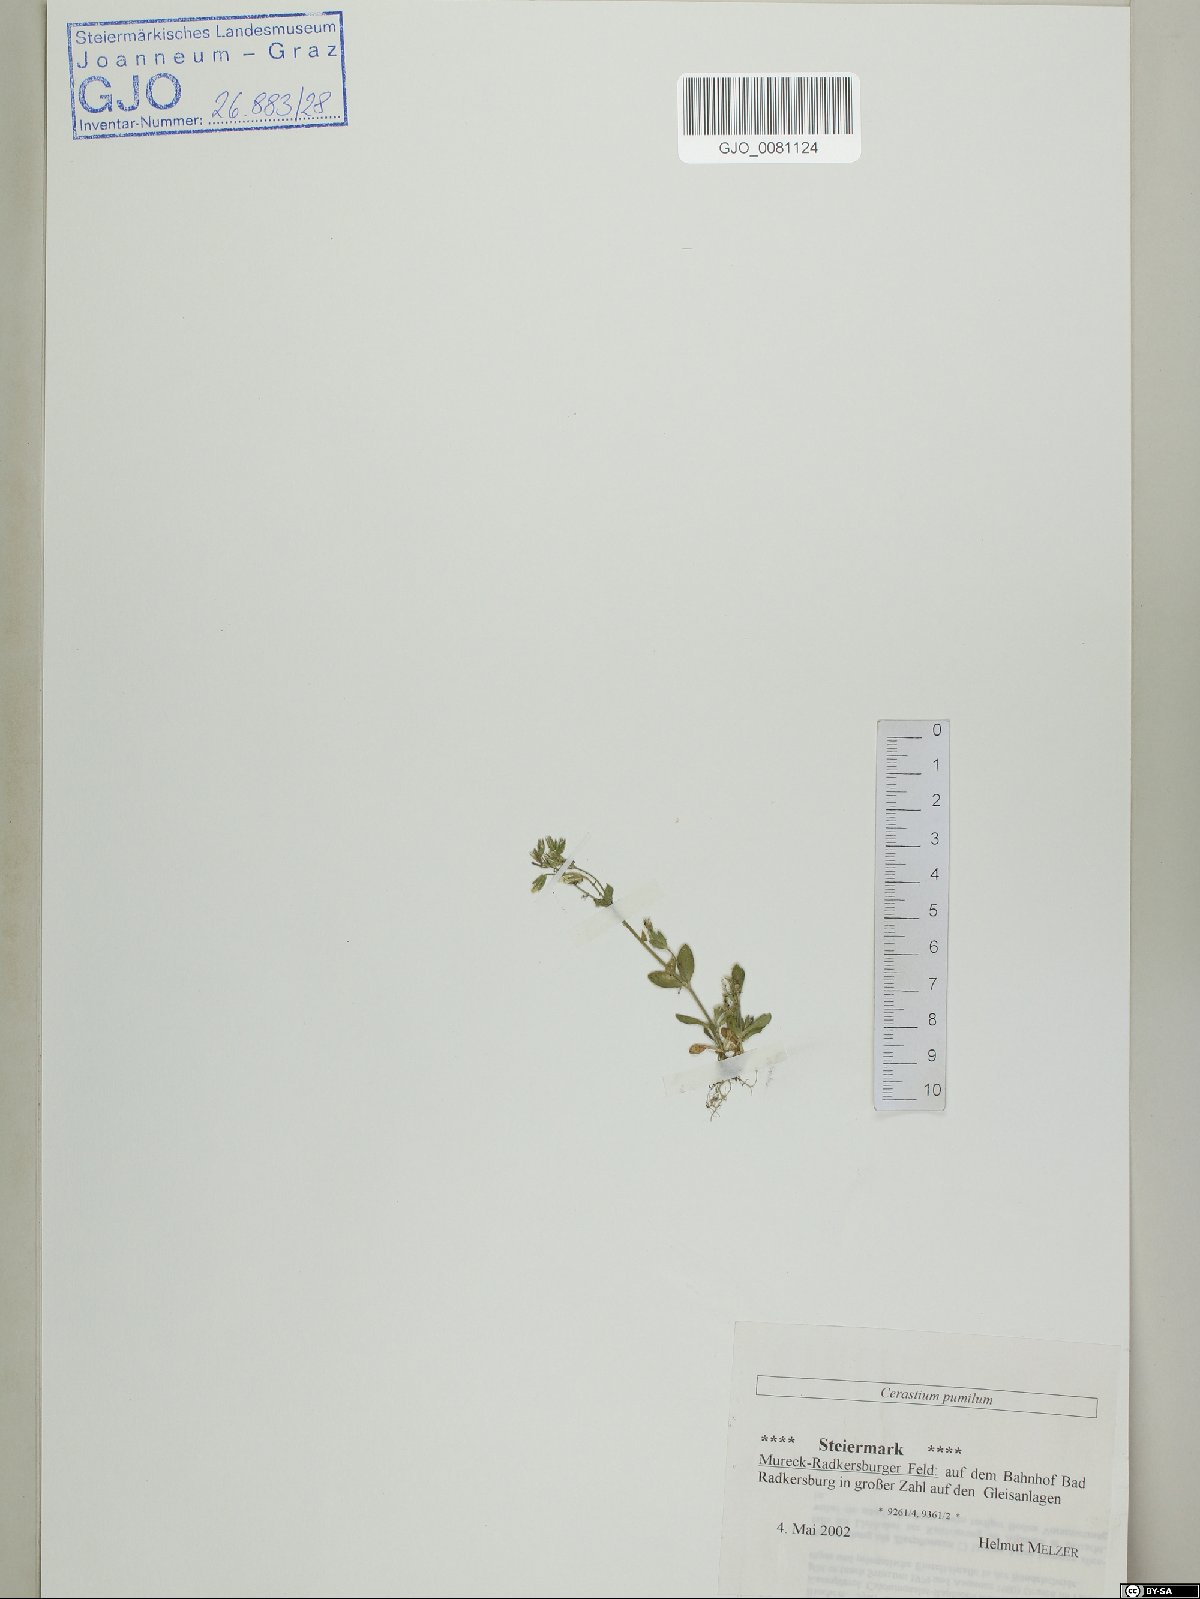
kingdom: Plantae
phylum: Tracheophyta
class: Magnoliopsida
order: Caryophyllales
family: Caryophyllaceae
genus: Cerastium
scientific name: Cerastium pumilum
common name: Dwarf mouse-ear
